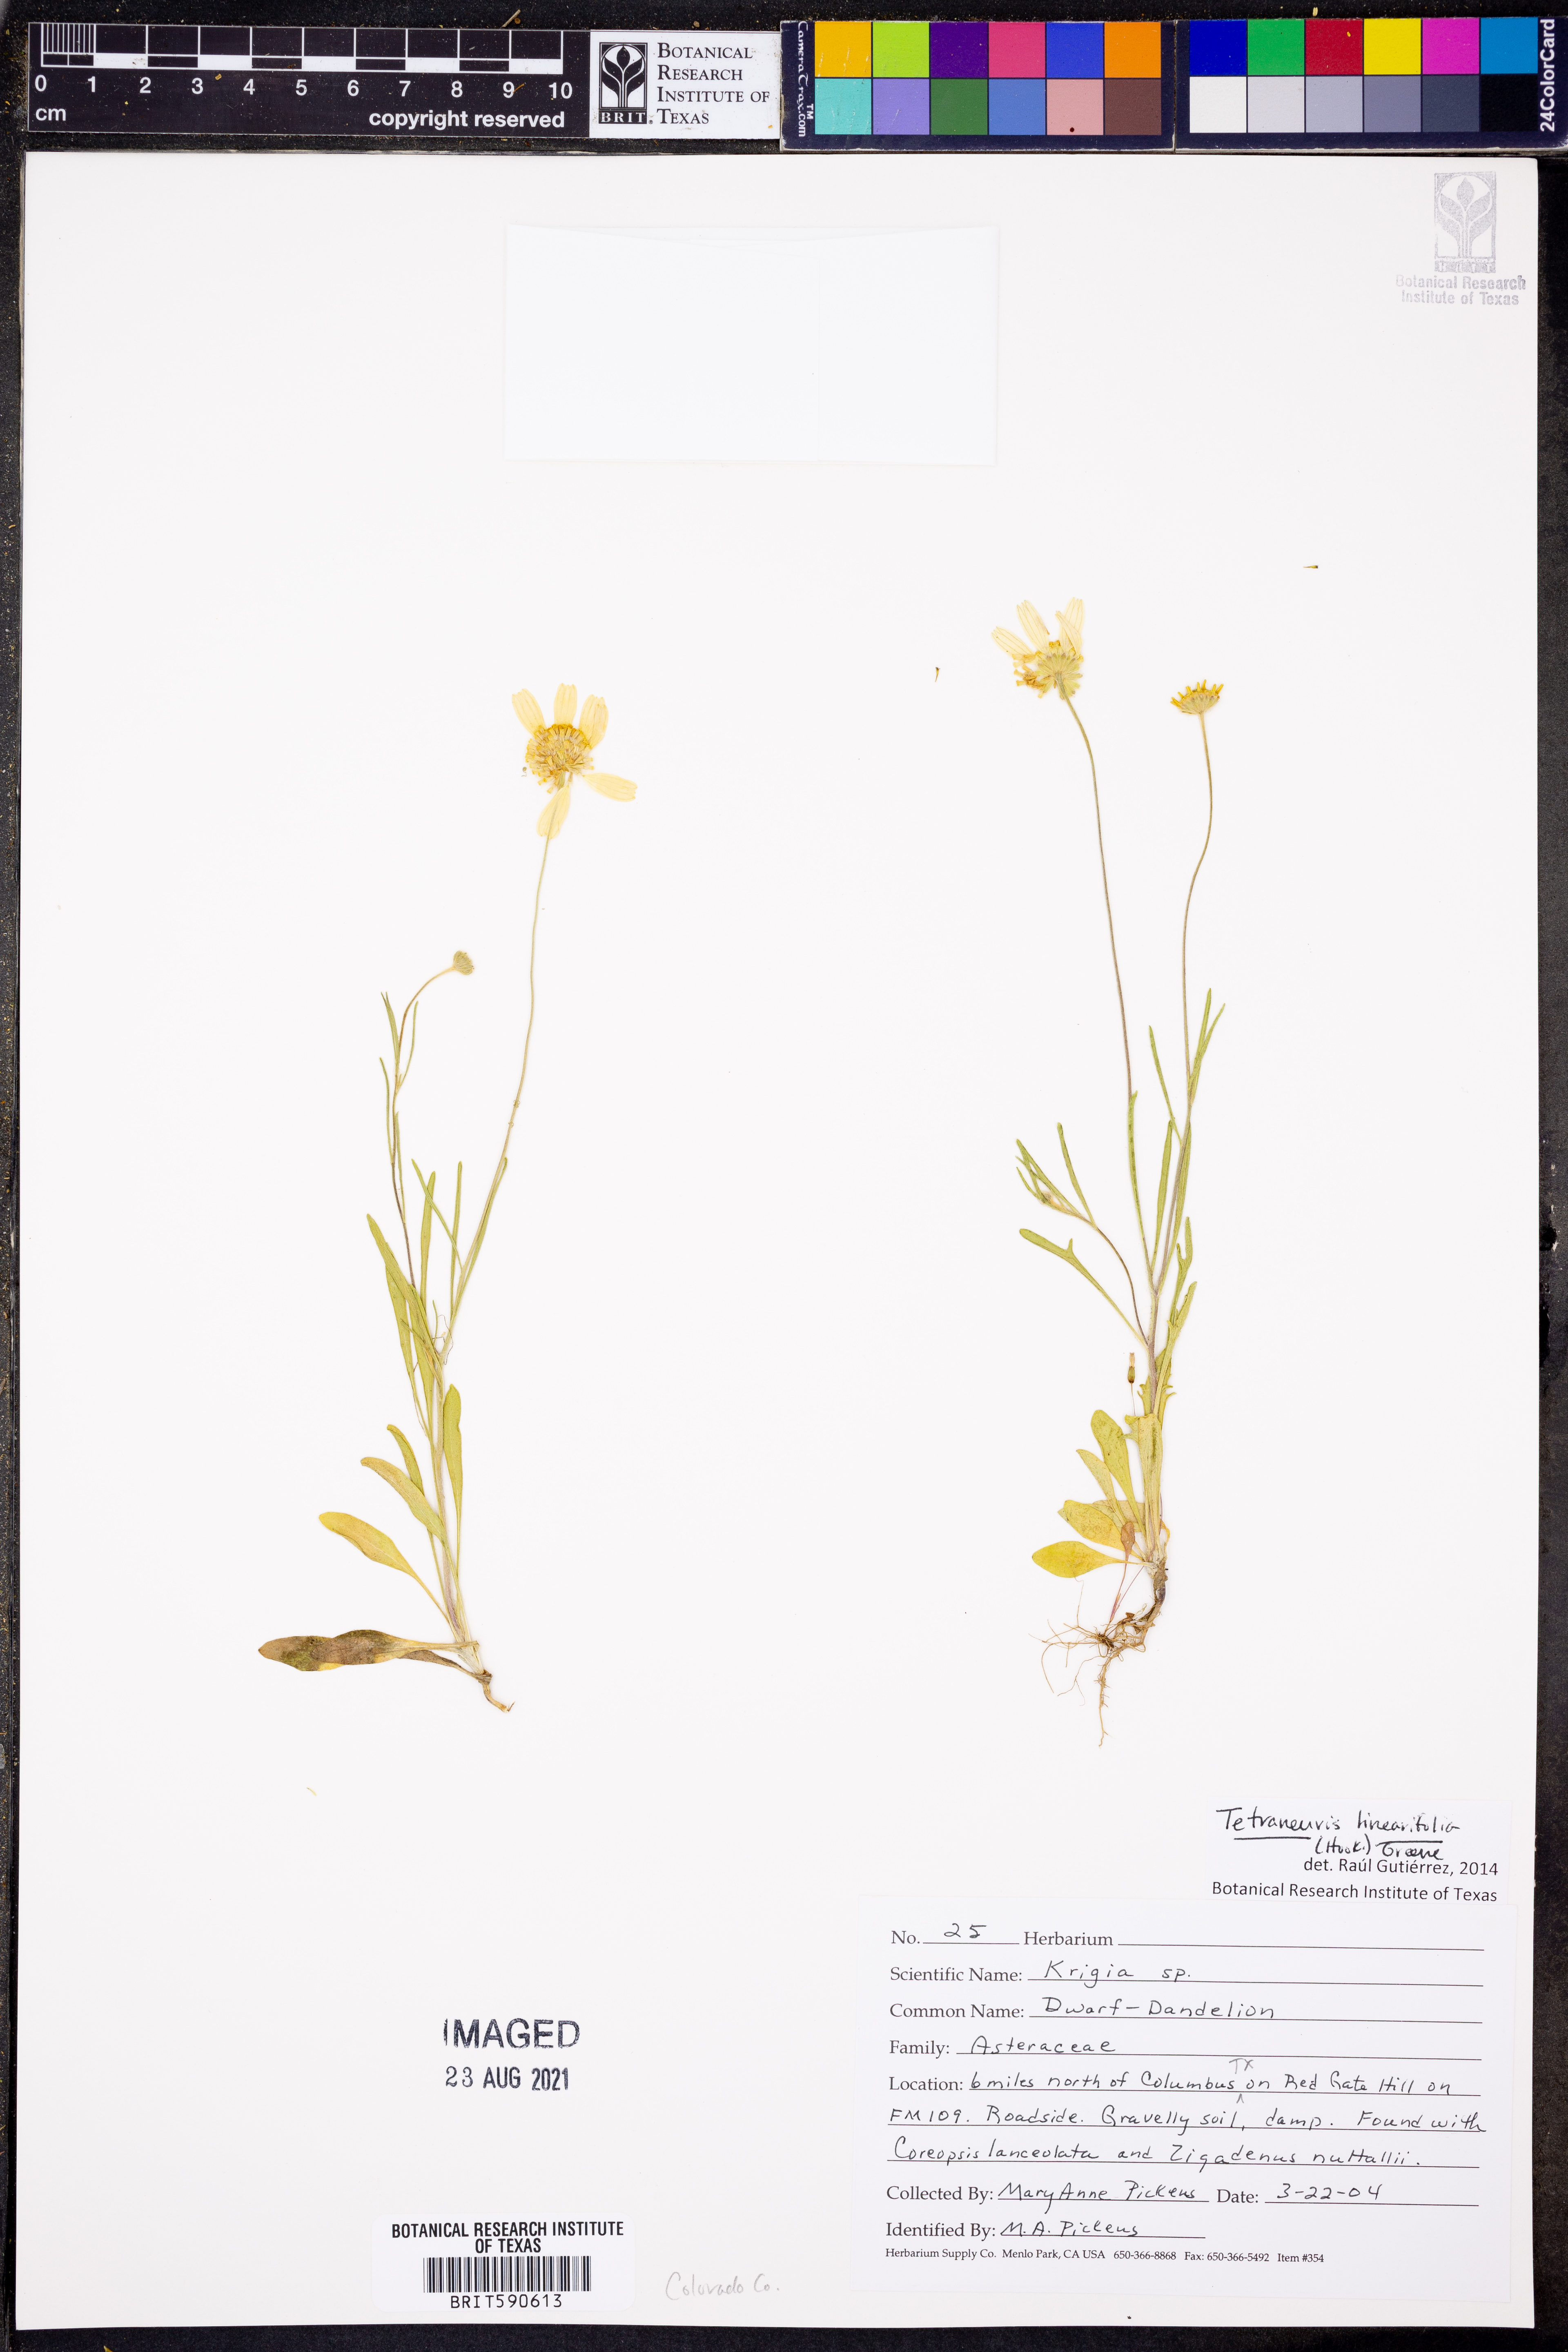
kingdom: Plantae
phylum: Tracheophyta
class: Magnoliopsida
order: Asterales
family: Asteraceae
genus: Tetraneuris
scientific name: Tetraneuris linearifolia
